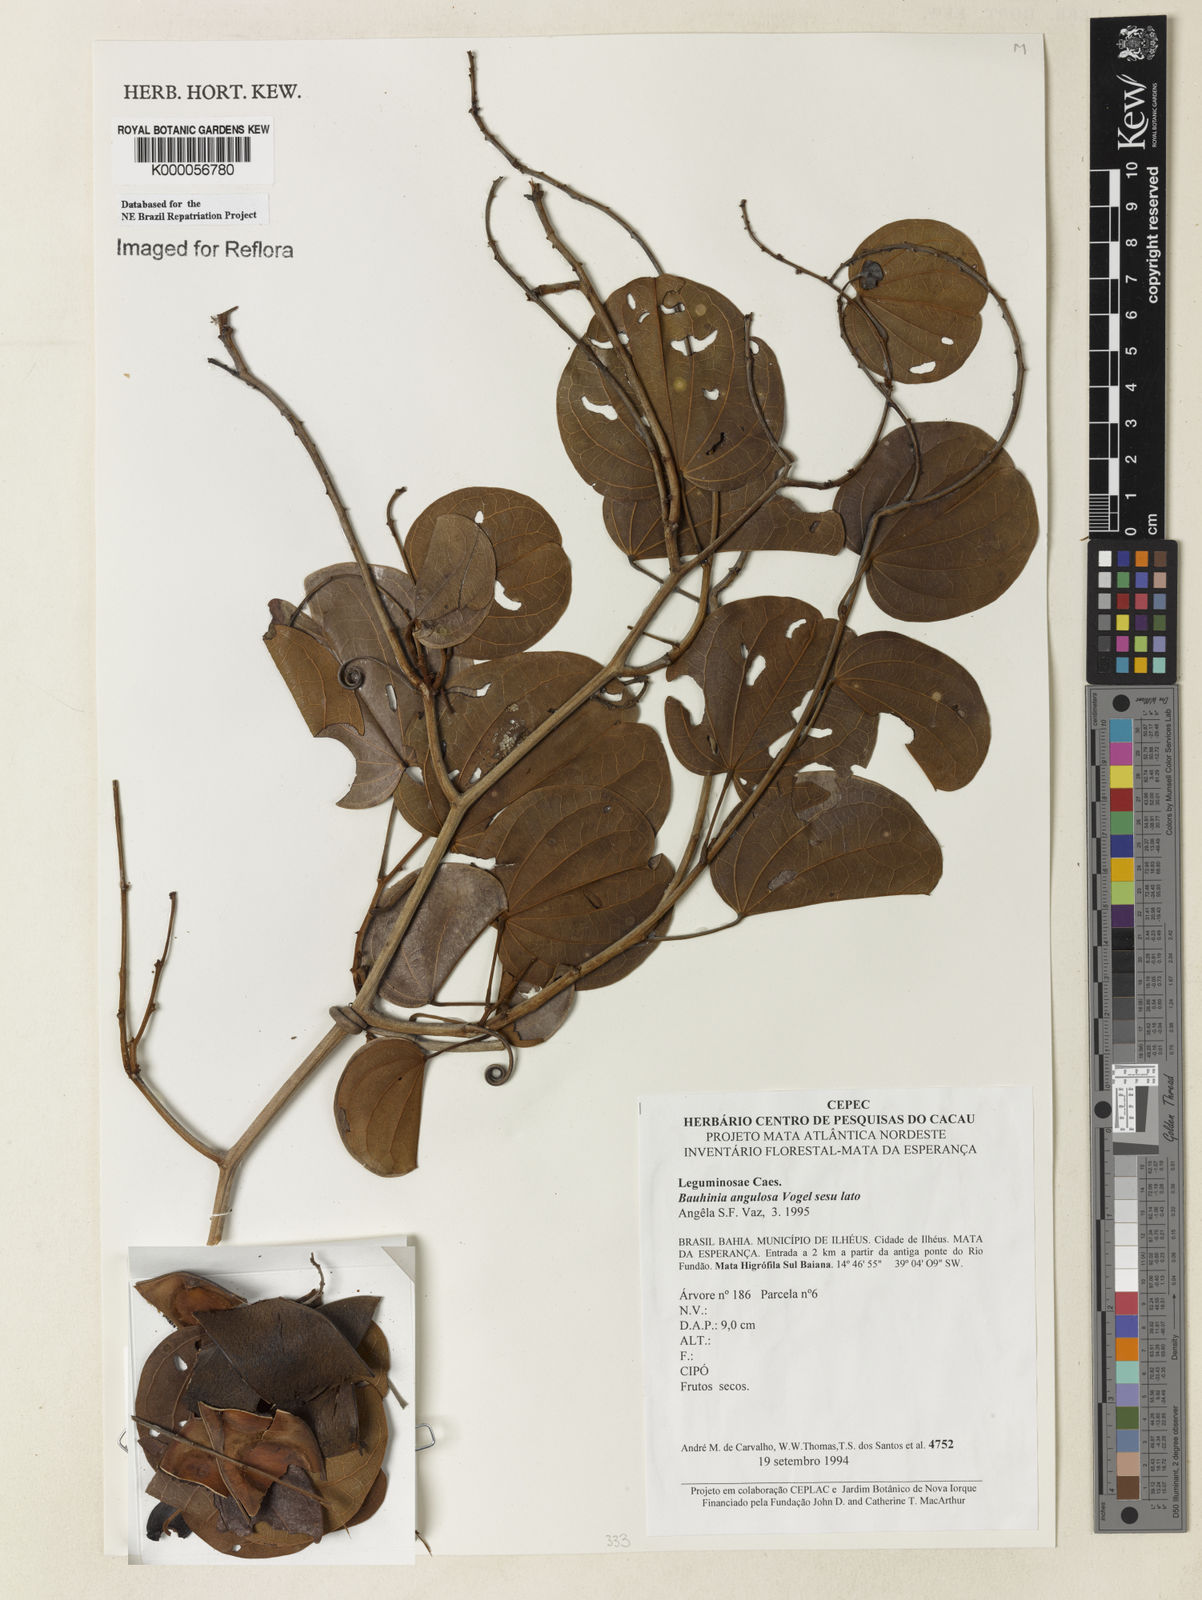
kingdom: Plantae
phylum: Tracheophyta
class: Magnoliopsida
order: Fabales
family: Fabaceae
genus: Schnella
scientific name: Schnella angulosa
